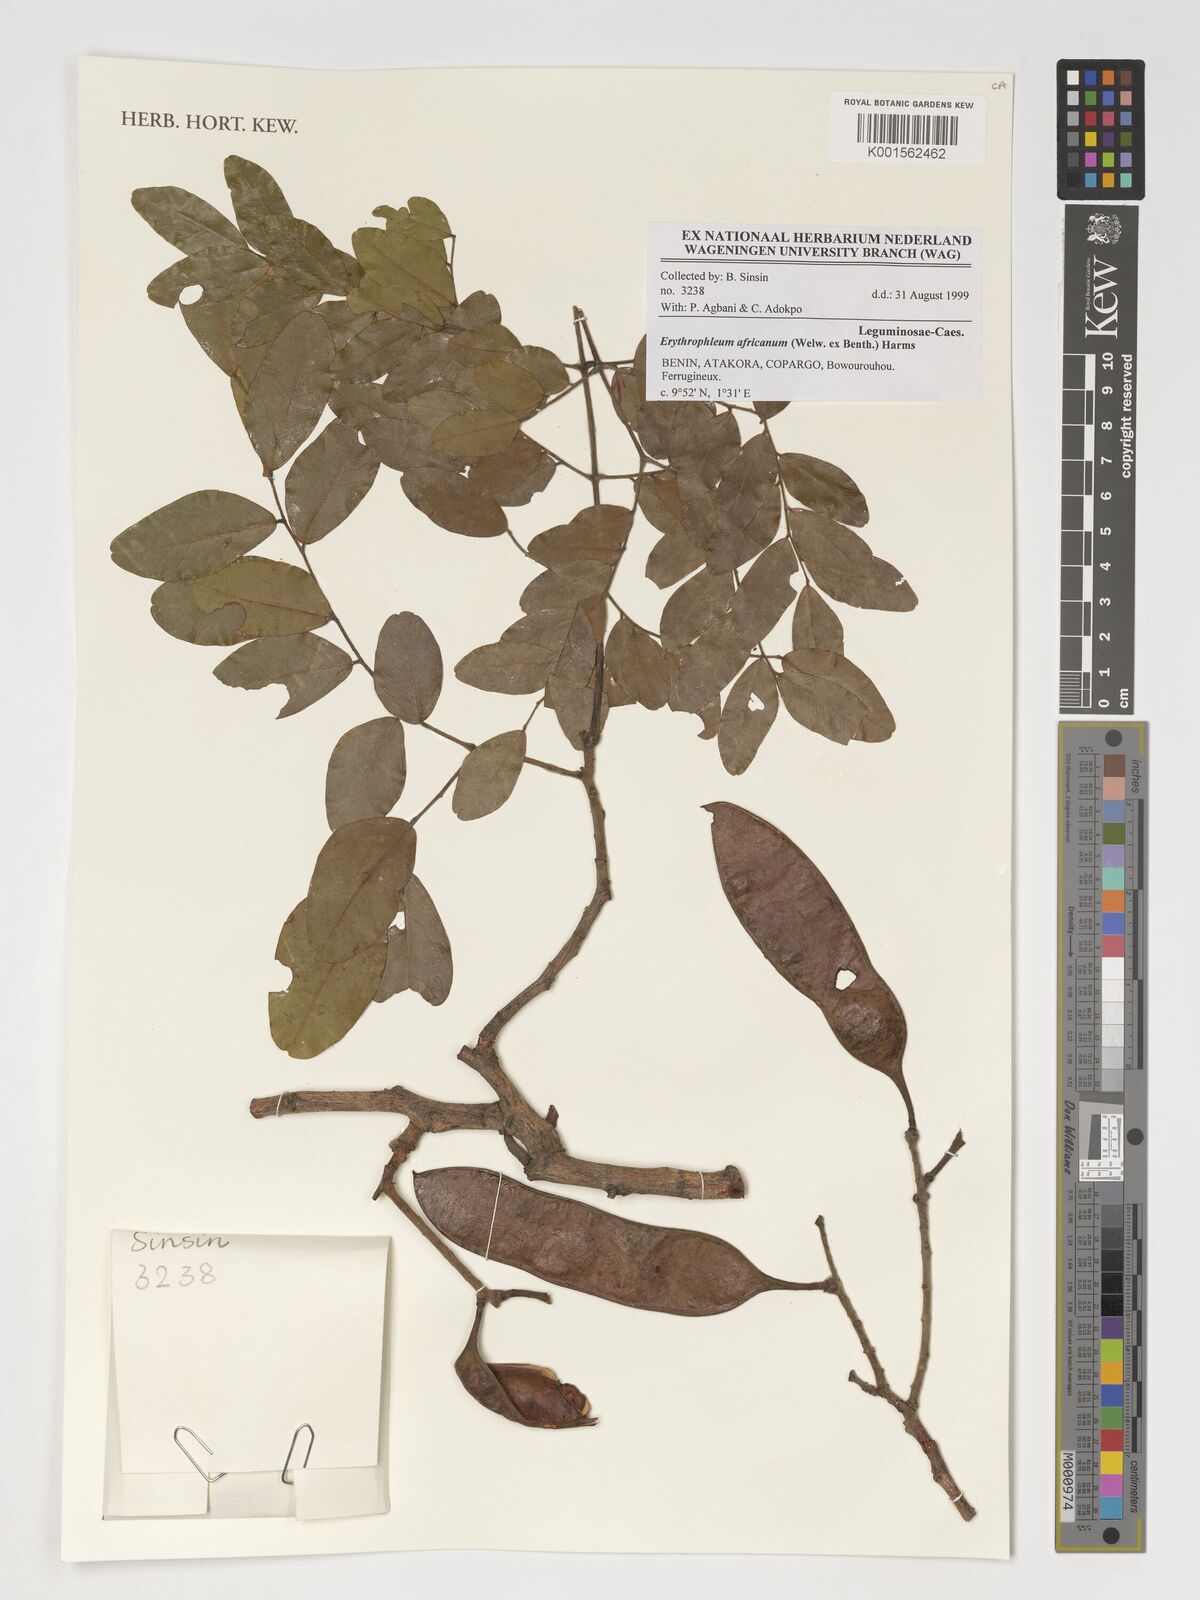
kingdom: Plantae
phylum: Tracheophyta
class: Magnoliopsida
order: Fabales
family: Fabaceae
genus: Erythrophleum
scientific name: Erythrophleum africanum
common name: African blackwood
